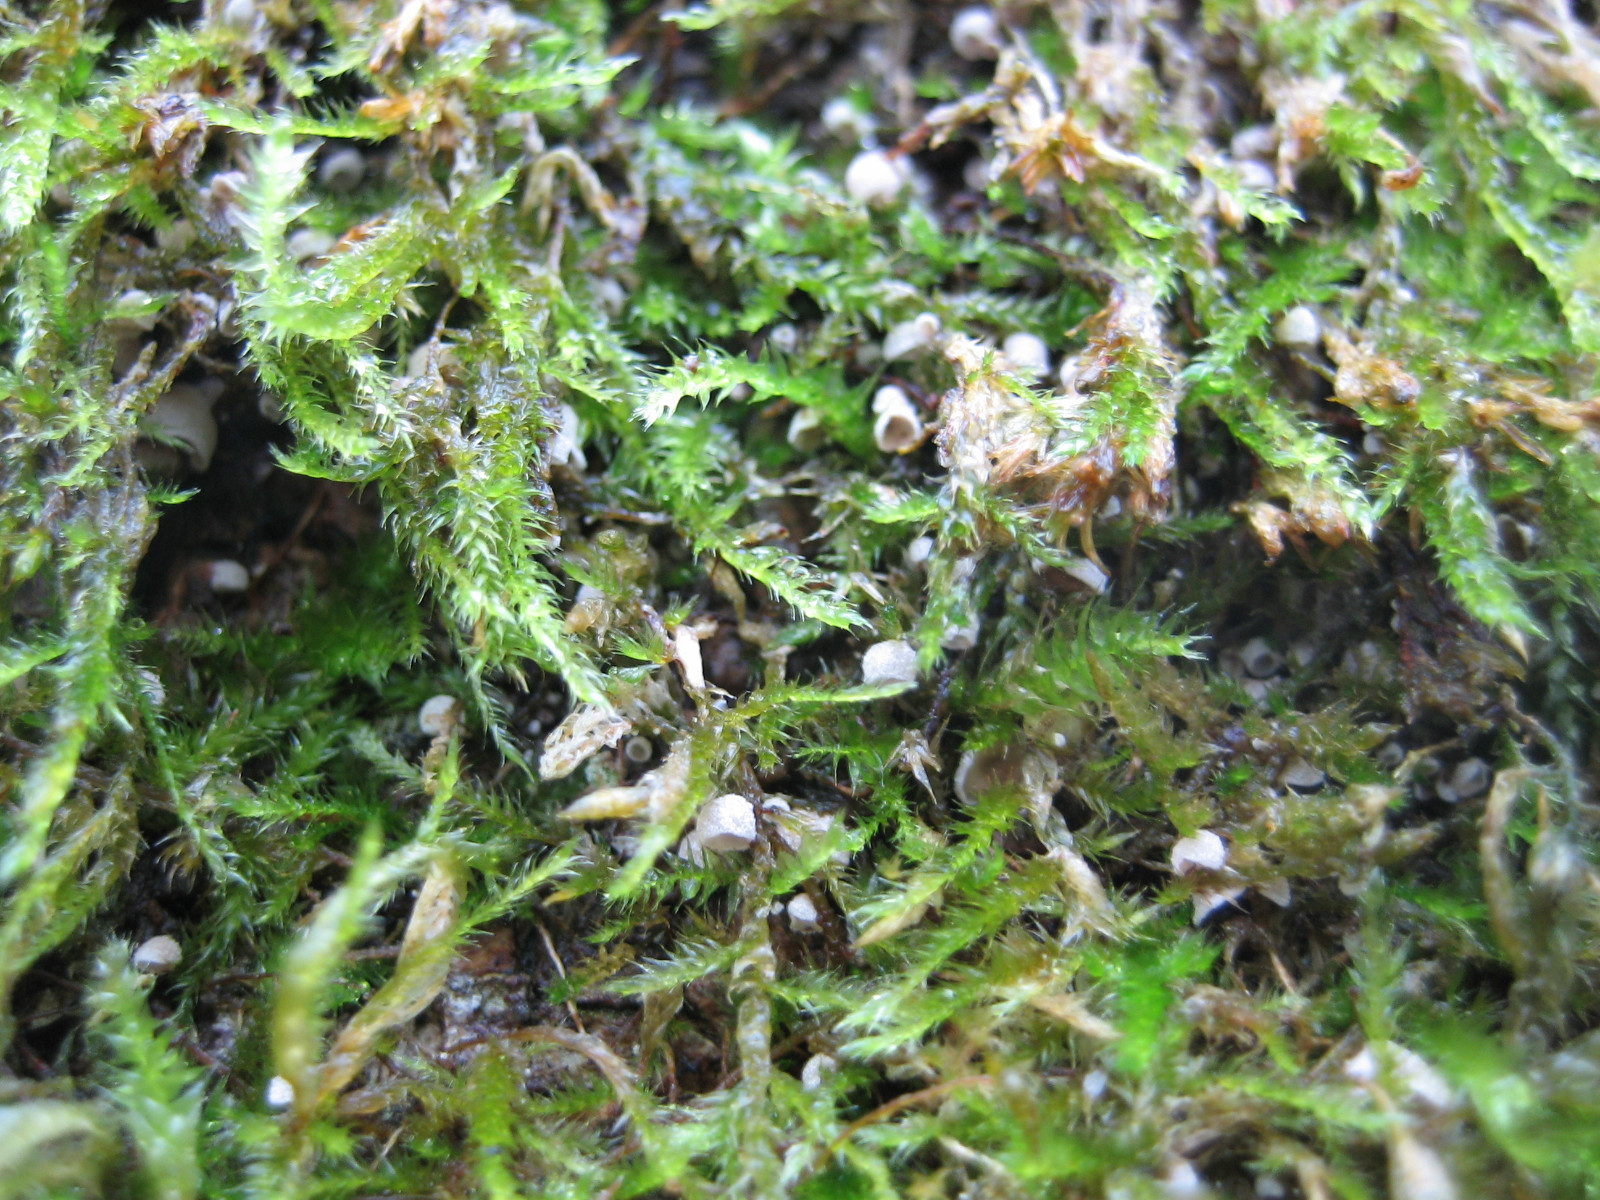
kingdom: Fungi
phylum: Basidiomycota
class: Agaricomycetes
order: Agaricales
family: Chromocyphellaceae
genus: Chromocyphella
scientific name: Chromocyphella muscicola
